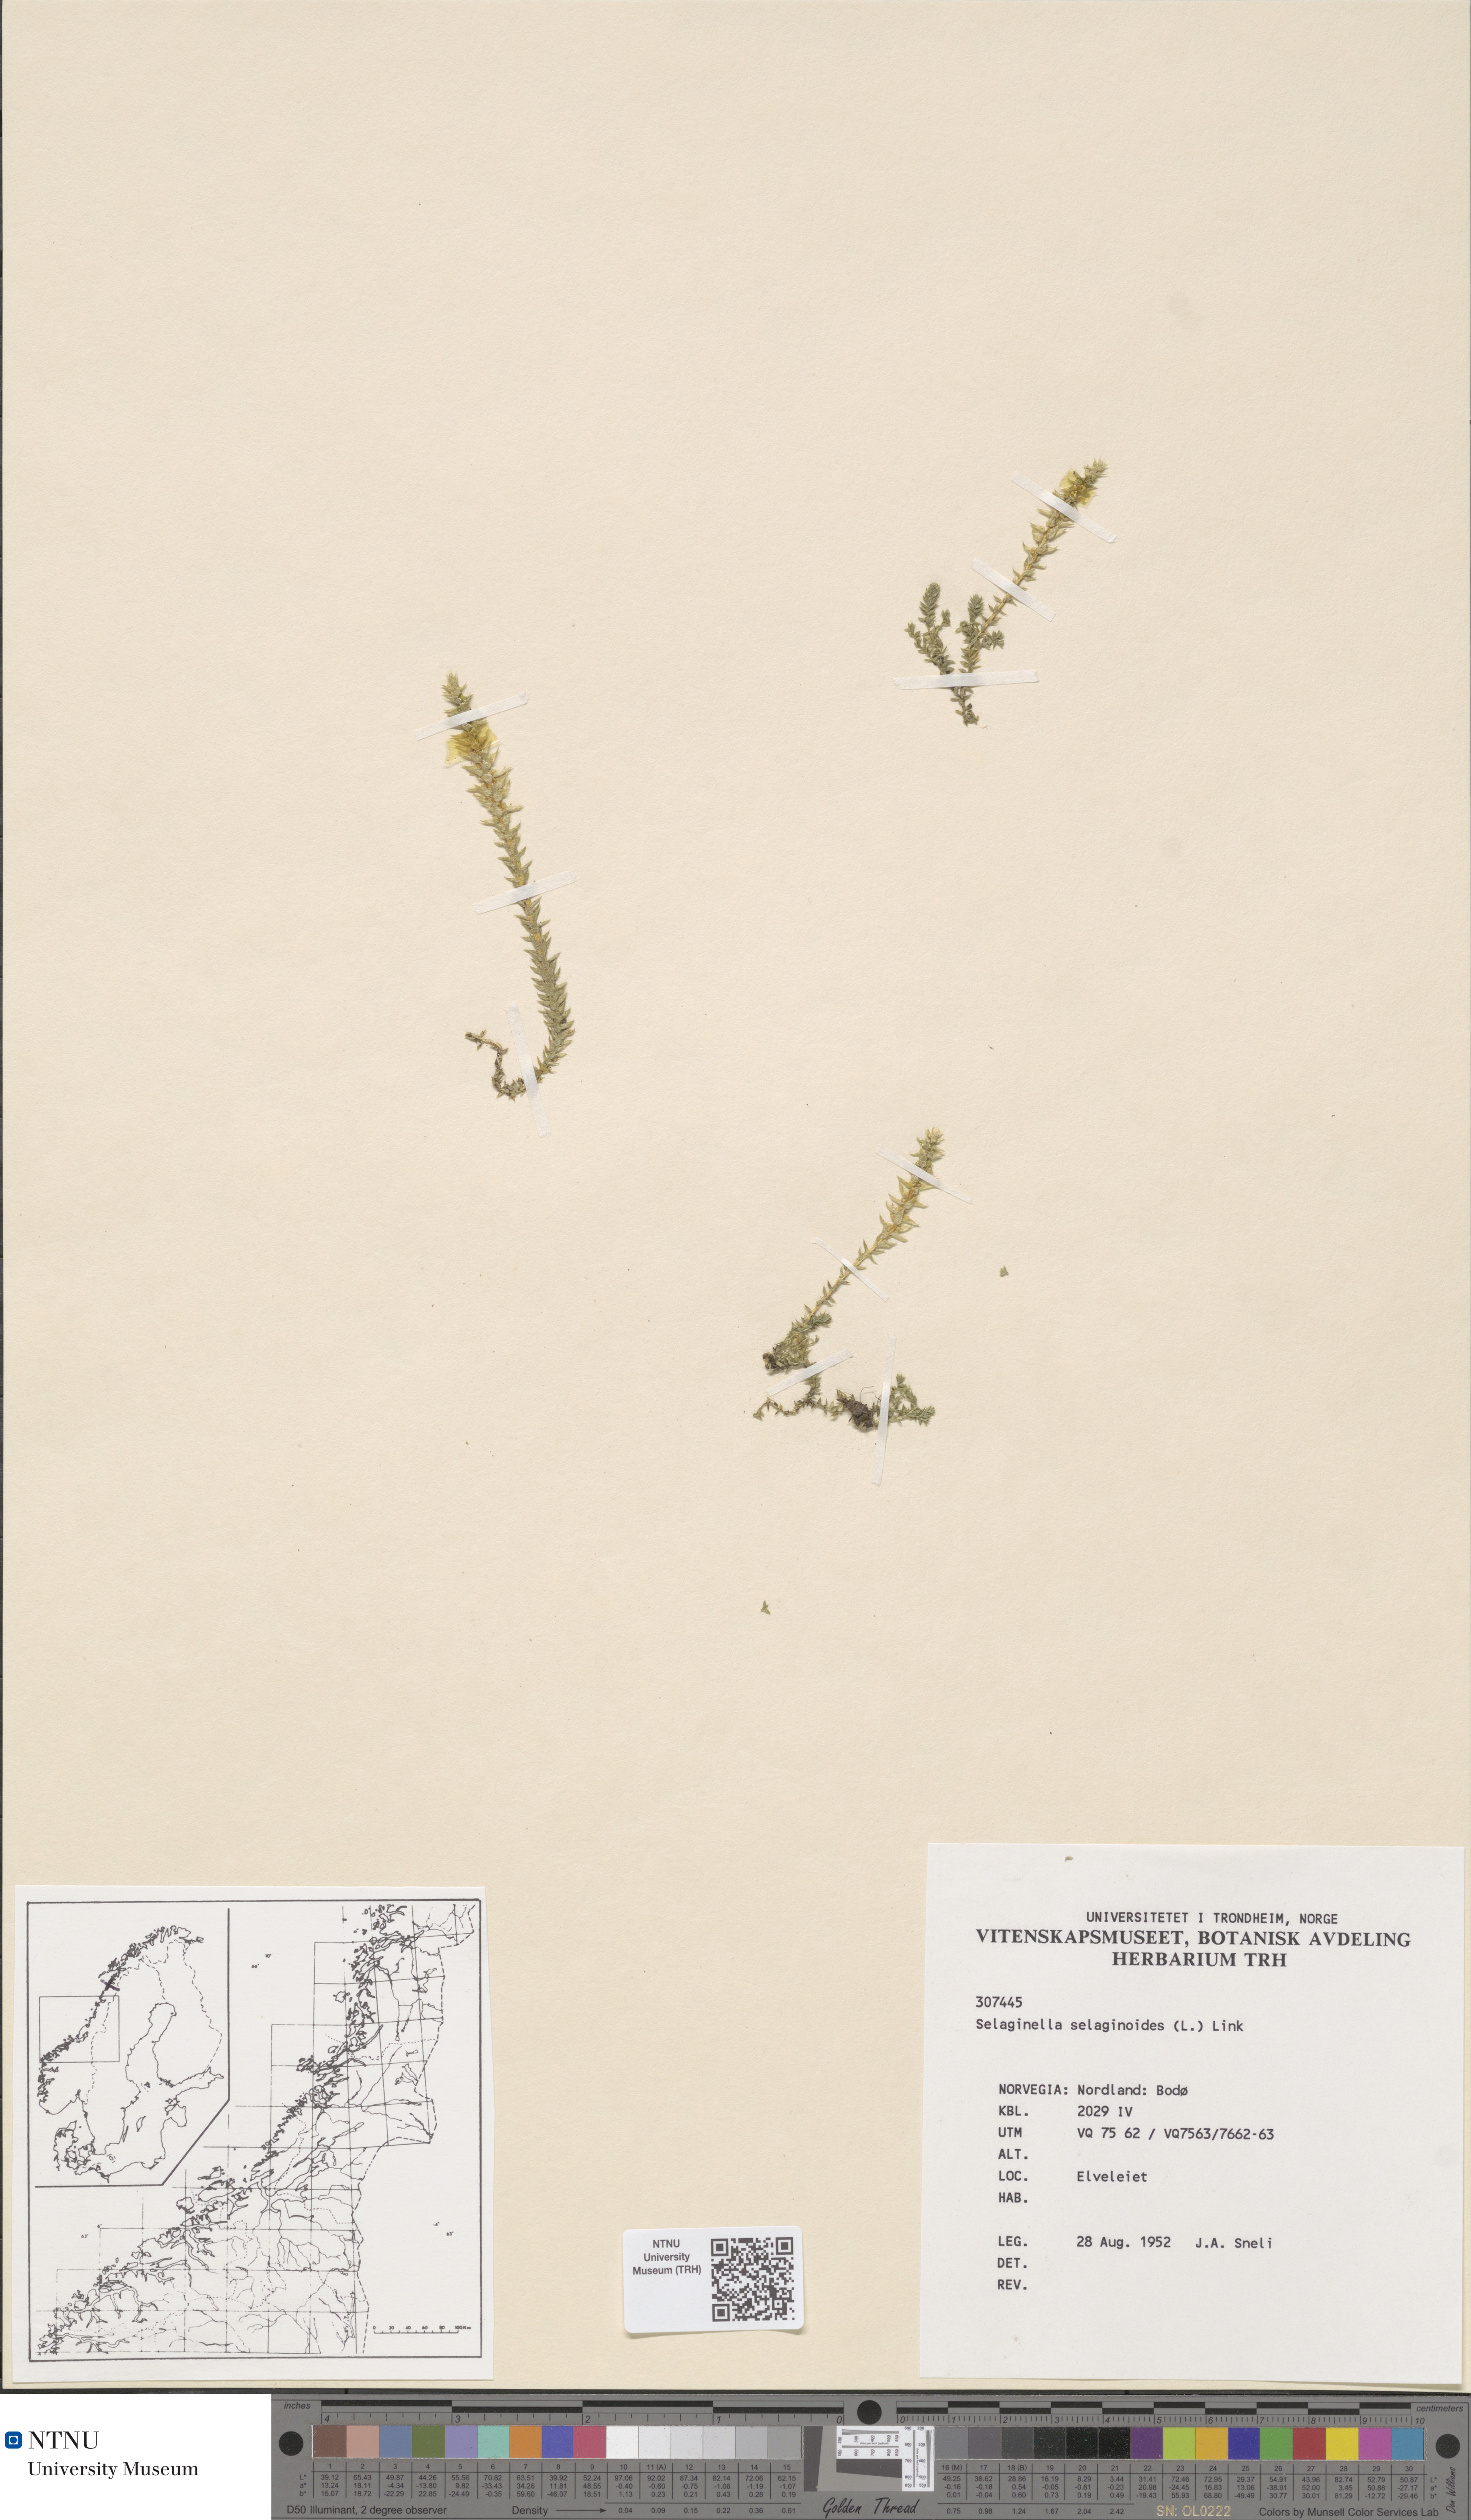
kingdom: Plantae
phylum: Tracheophyta
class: Lycopodiopsida
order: Selaginellales
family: Selaginellaceae
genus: Selaginella
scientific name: Selaginella selaginoides
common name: Prickly mountain-moss
